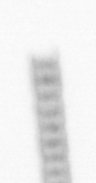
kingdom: Chromista
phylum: Ochrophyta
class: Bacillariophyceae
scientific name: Bacillariophyceae
